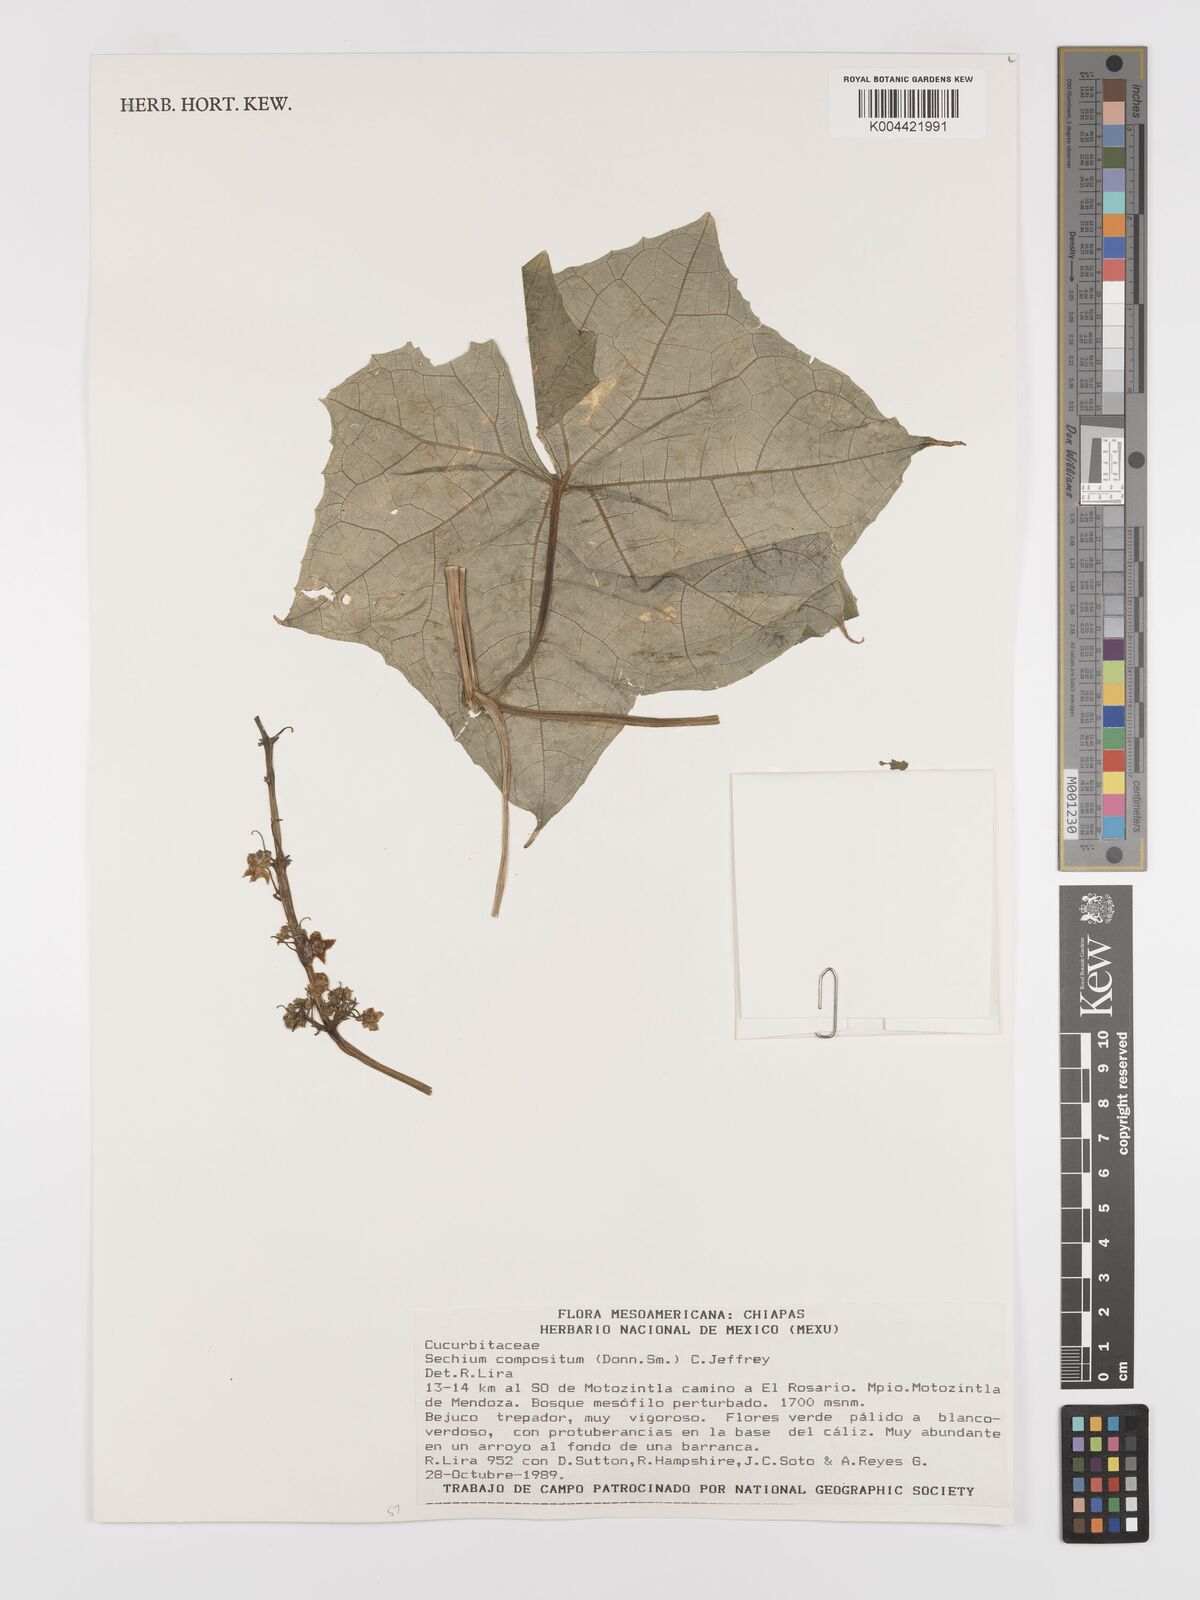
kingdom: Plantae
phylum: Tracheophyta
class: Magnoliopsida
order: Cucurbitales
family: Cucurbitaceae
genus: Sechium
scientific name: Sechium compositum
